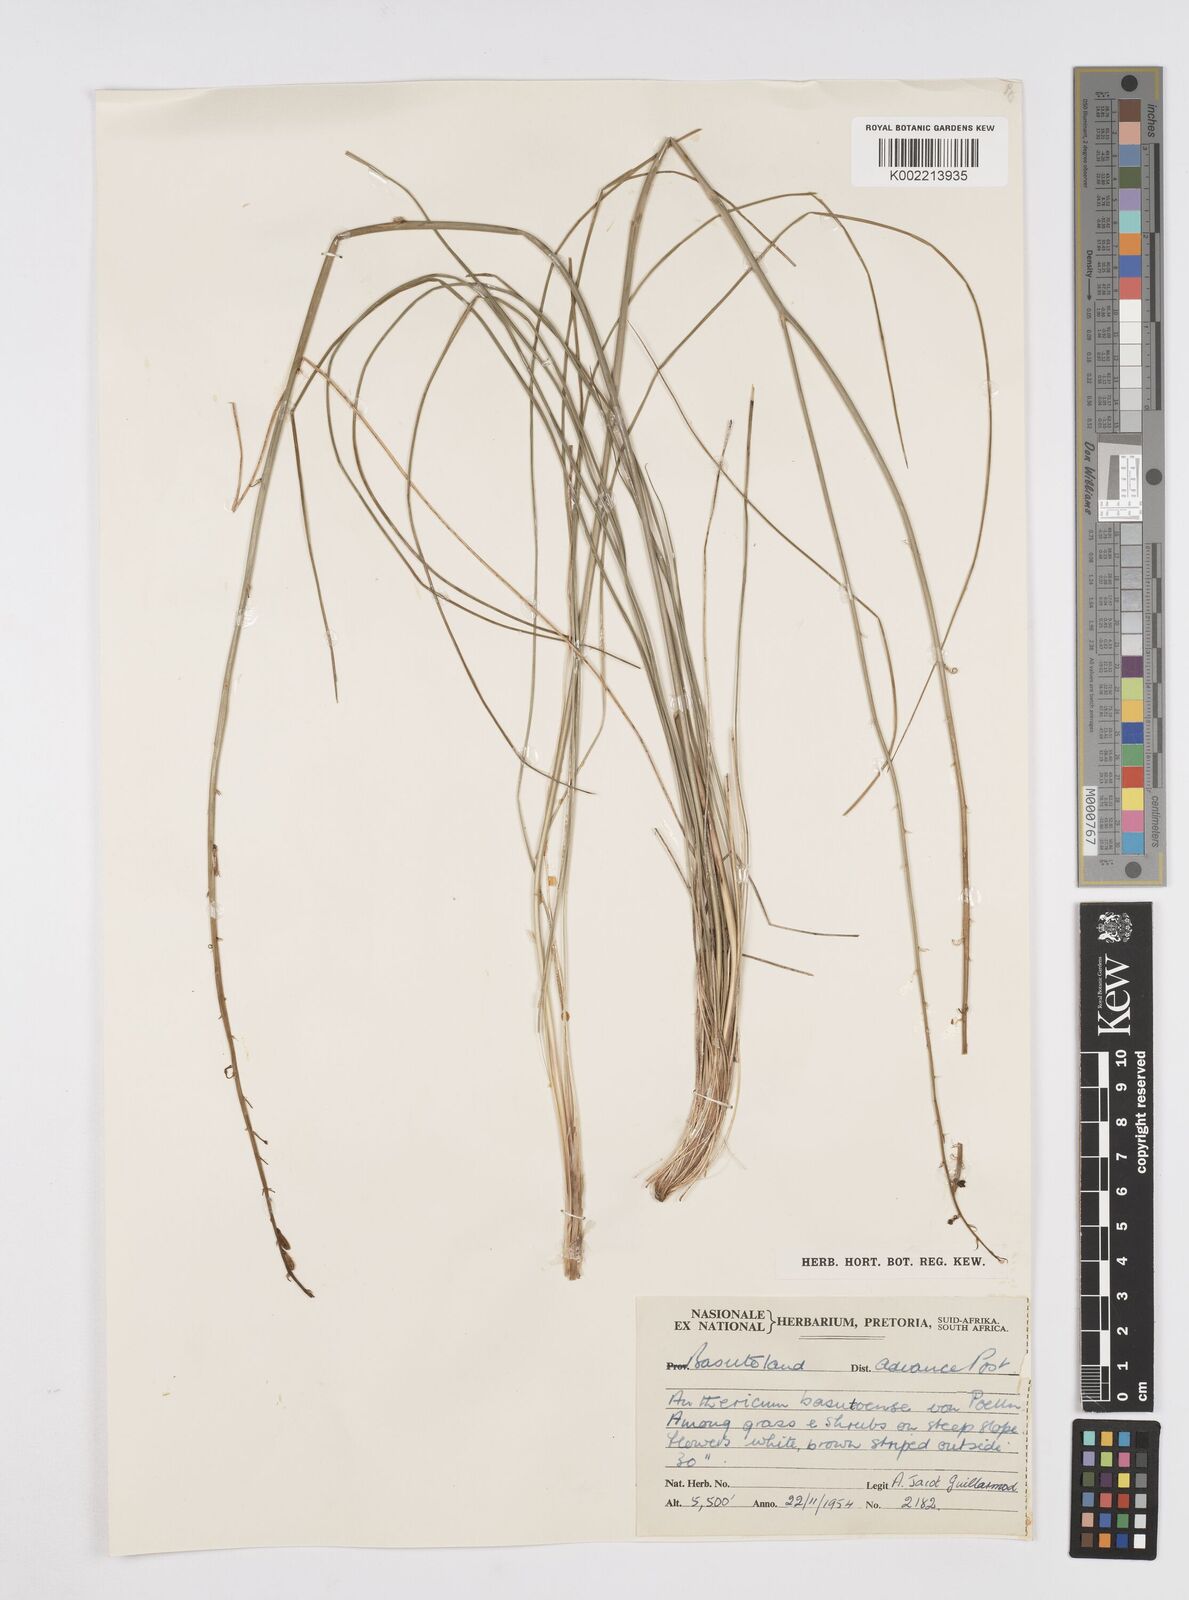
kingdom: Plantae
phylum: Tracheophyta
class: Liliopsida
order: Asparagales
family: Asphodelaceae
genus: Trachyandra
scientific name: Trachyandra asperata
